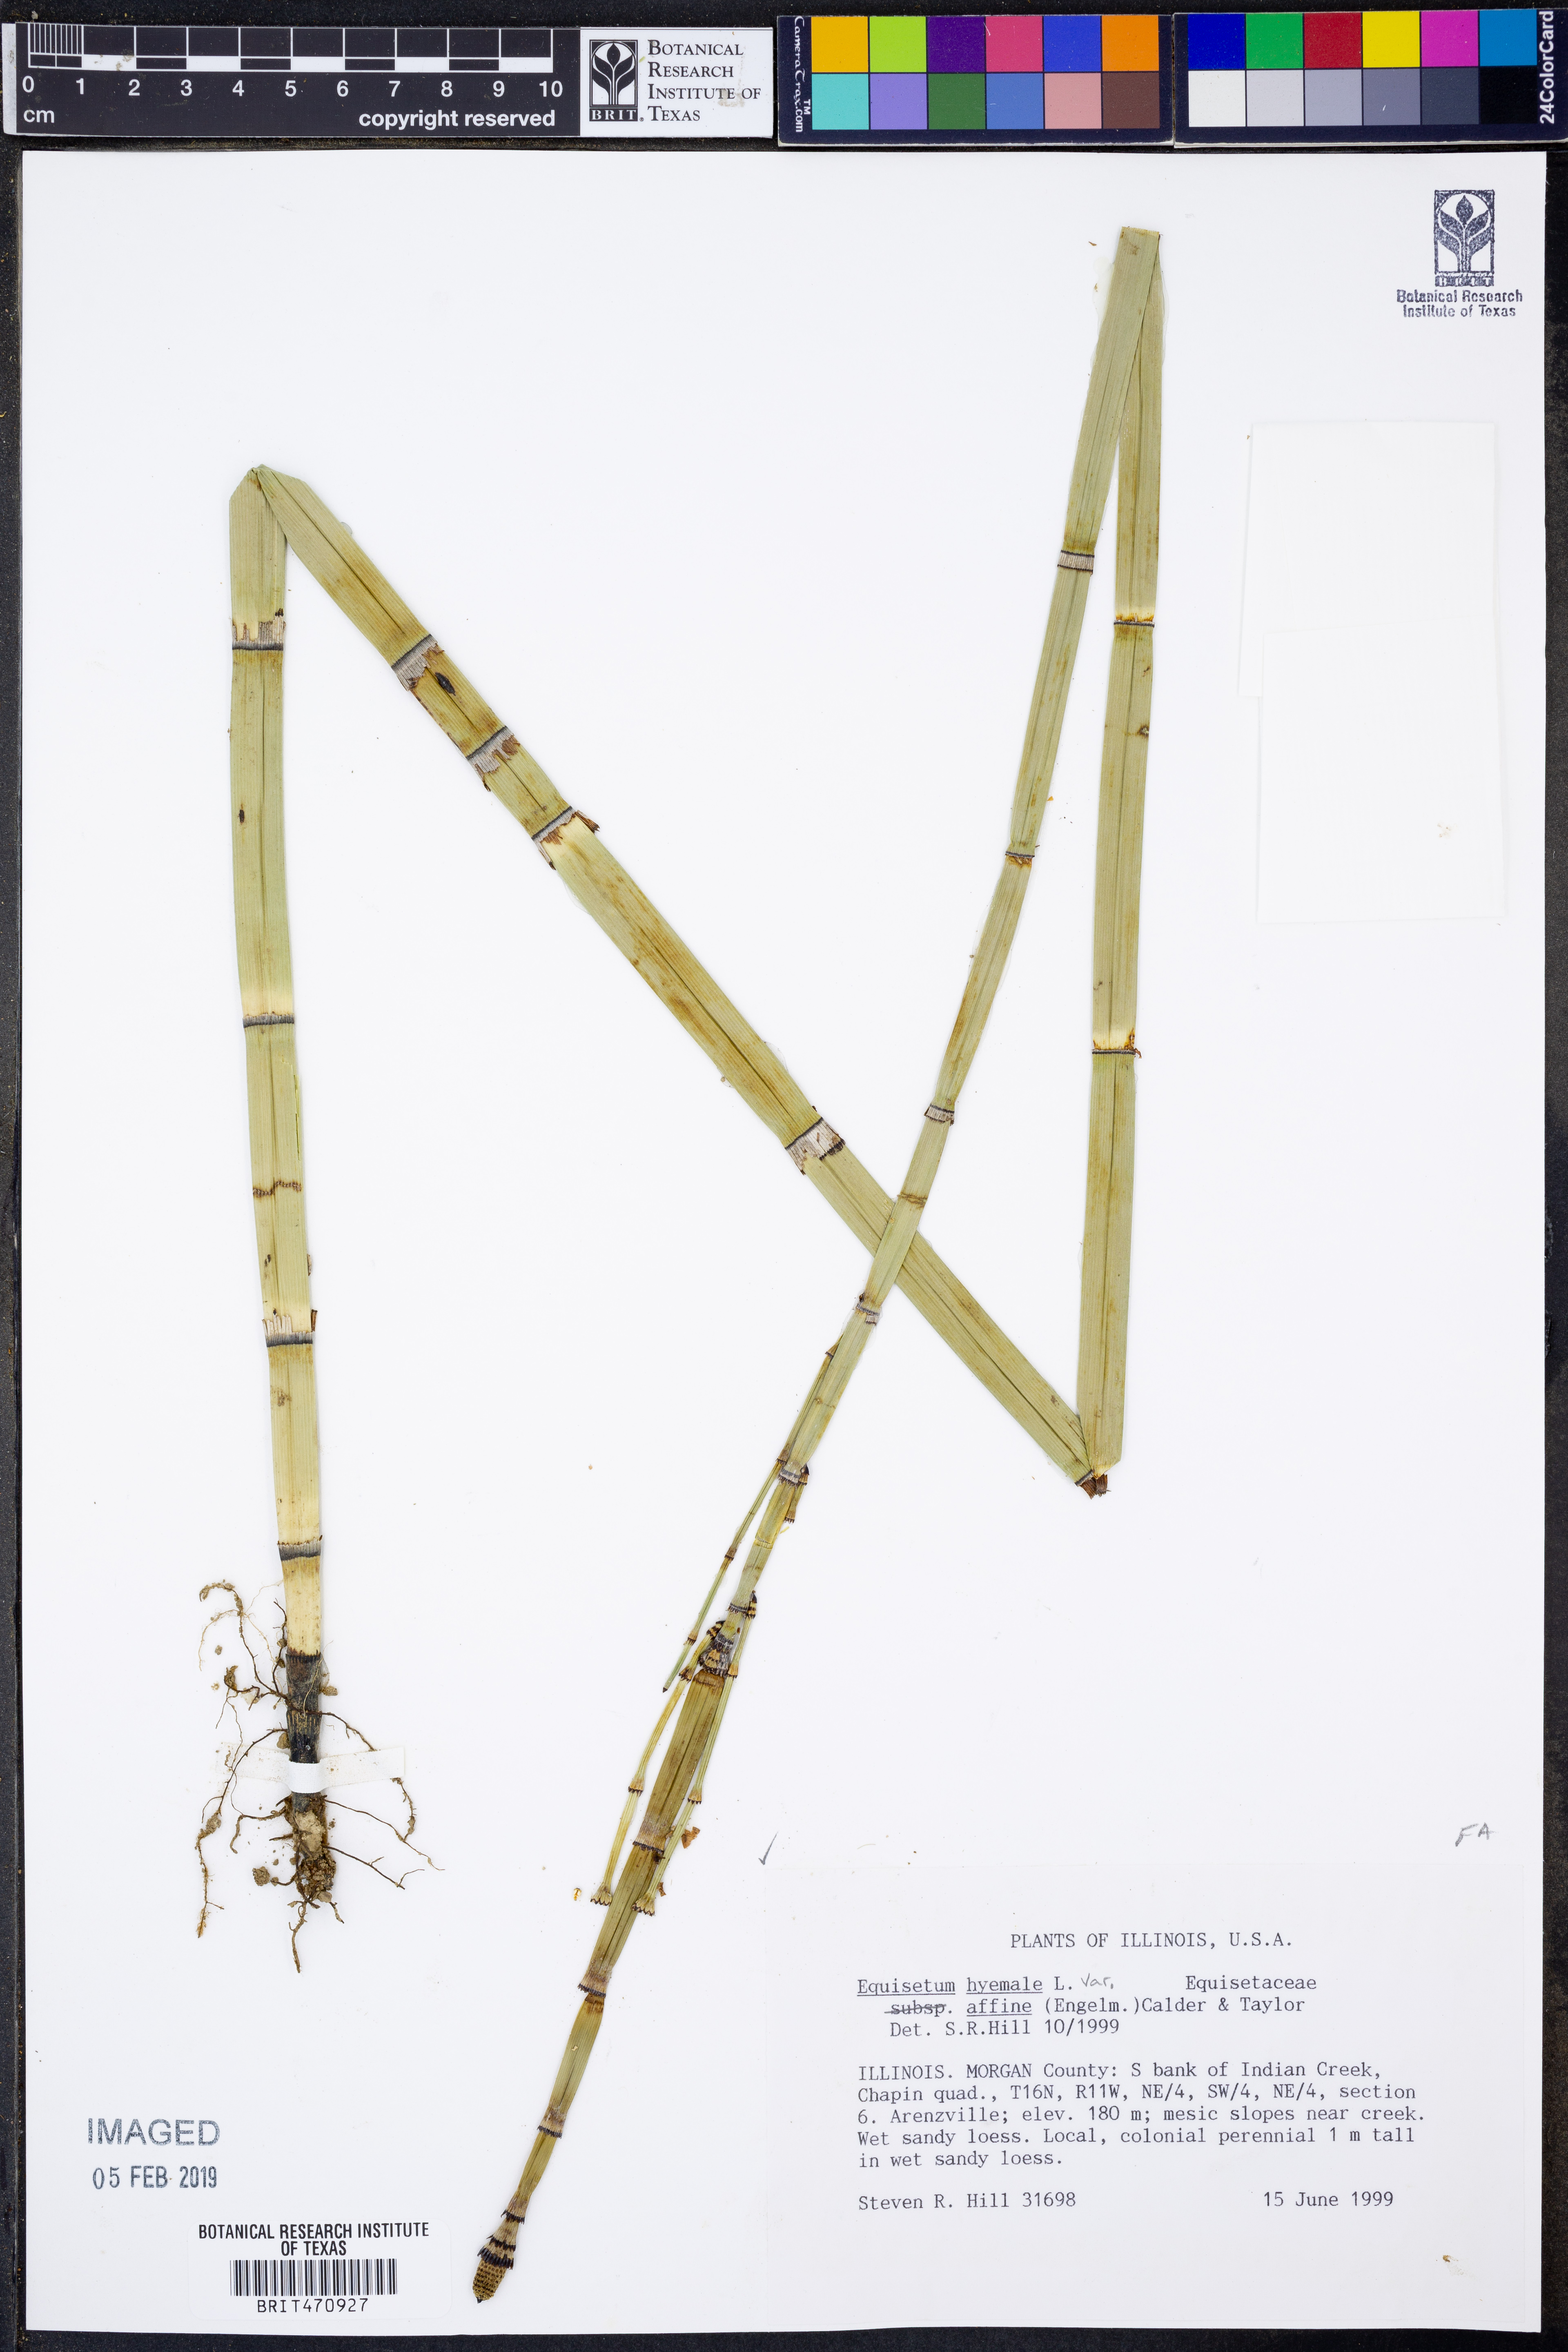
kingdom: Plantae
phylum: Tracheophyta
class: Polypodiopsida
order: Equisetales
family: Equisetaceae
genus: Equisetum
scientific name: Equisetum praealtum
